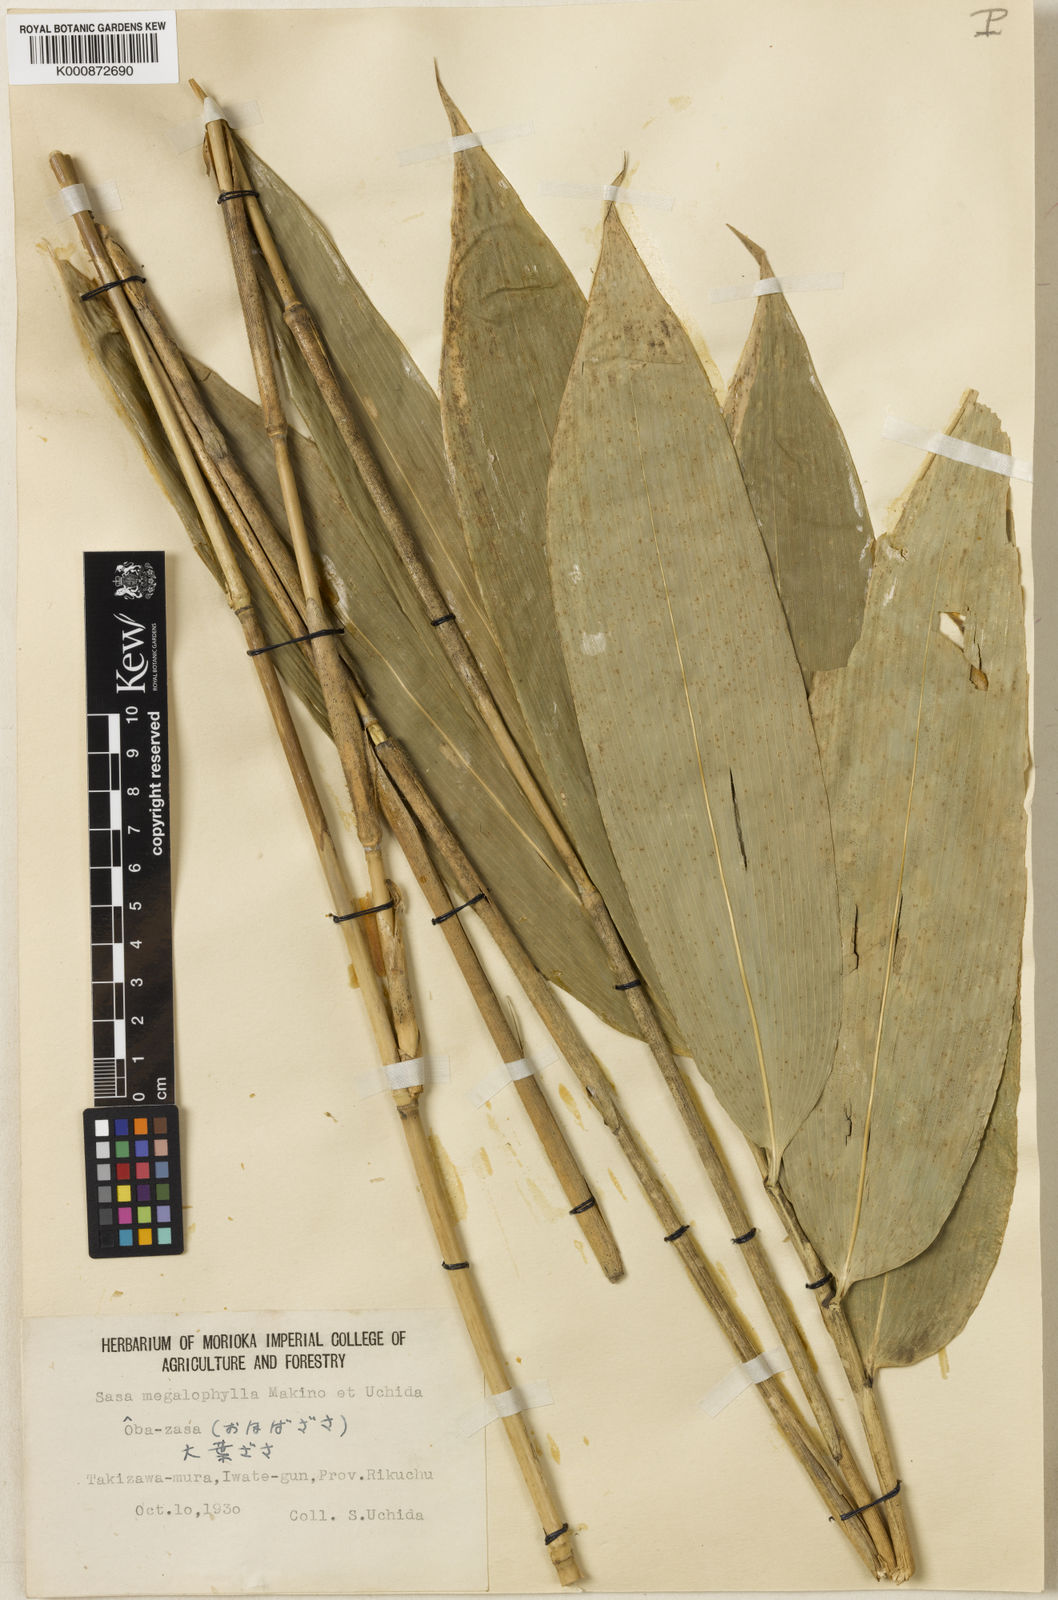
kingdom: Plantae
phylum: Tracheophyta
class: Liliopsida
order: Poales
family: Poaceae
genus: Sasa
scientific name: Sasa megalophylla
